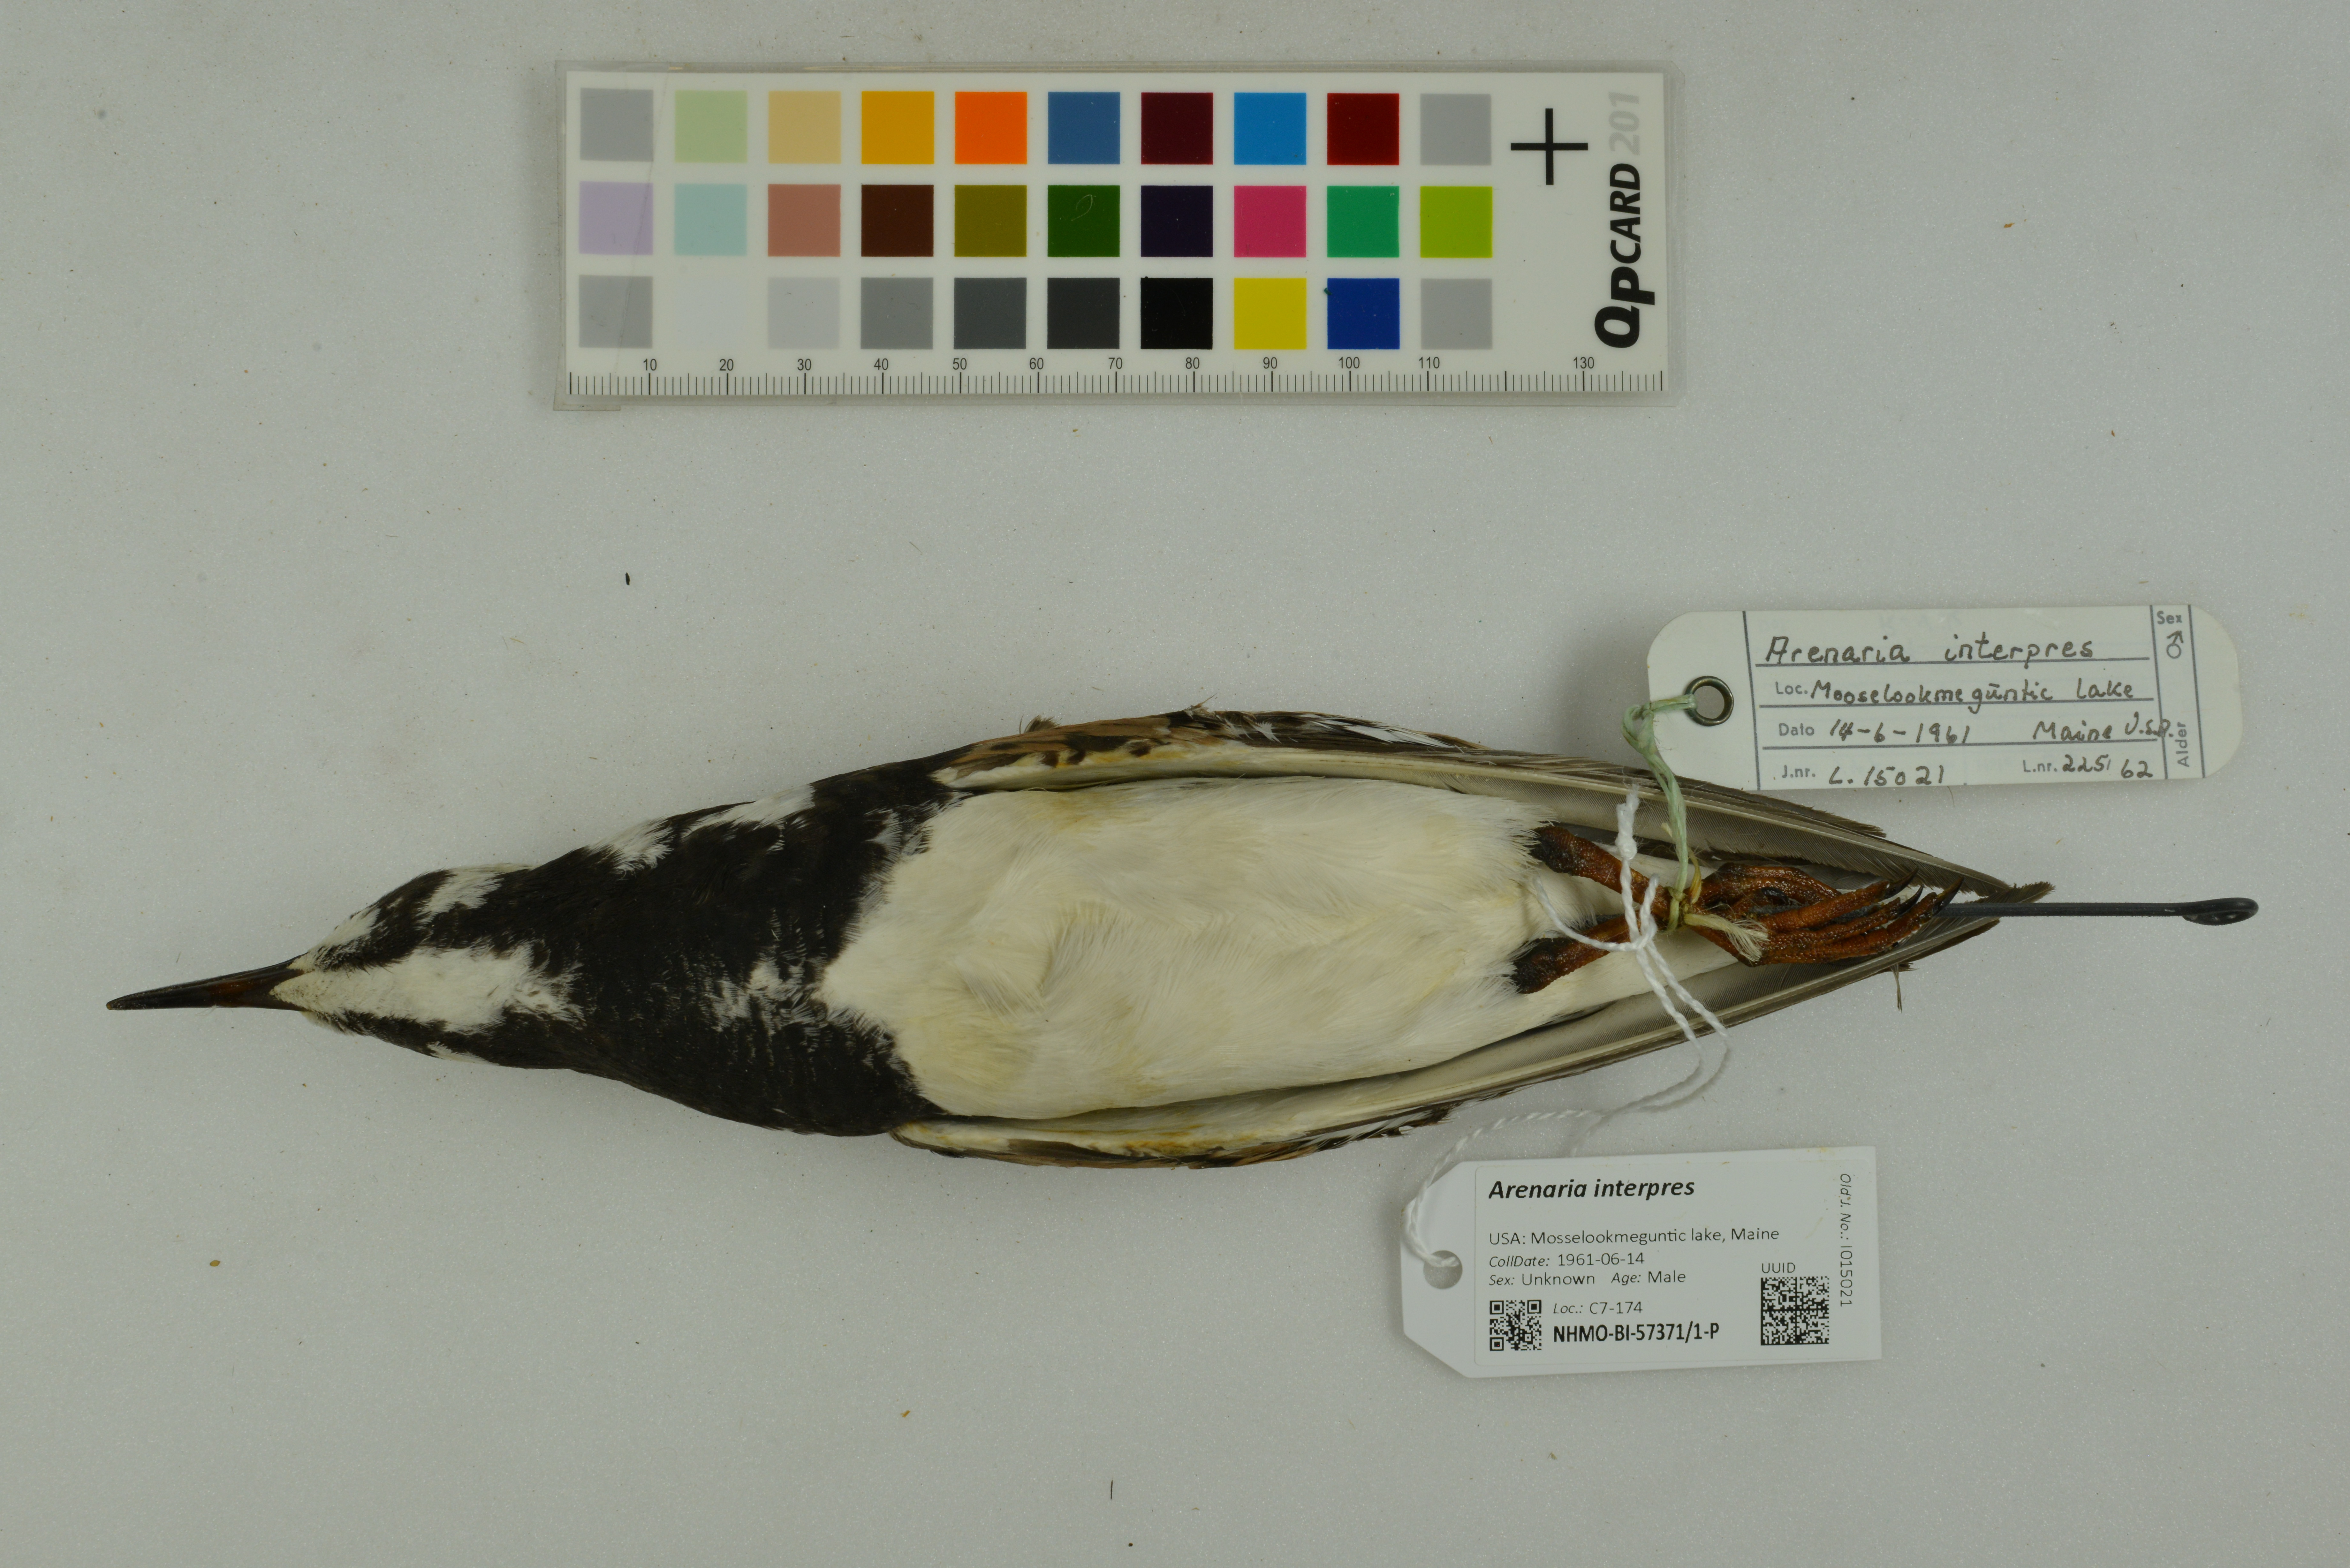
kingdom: Animalia
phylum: Chordata
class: Aves
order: Charadriiformes
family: Scolopacidae
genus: Arenaria
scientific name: Arenaria interpres
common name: Ruddy turnstone
